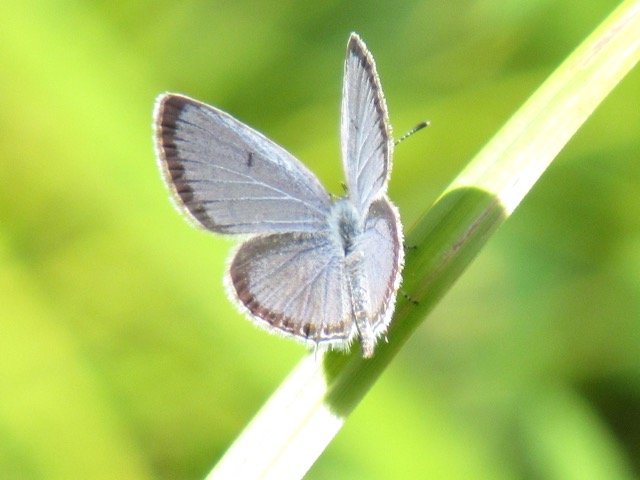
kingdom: Animalia
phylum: Arthropoda
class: Insecta
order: Lepidoptera
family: Lycaenidae
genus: Elkalyce
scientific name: Elkalyce comyntas
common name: Eastern Tailed-Blue
